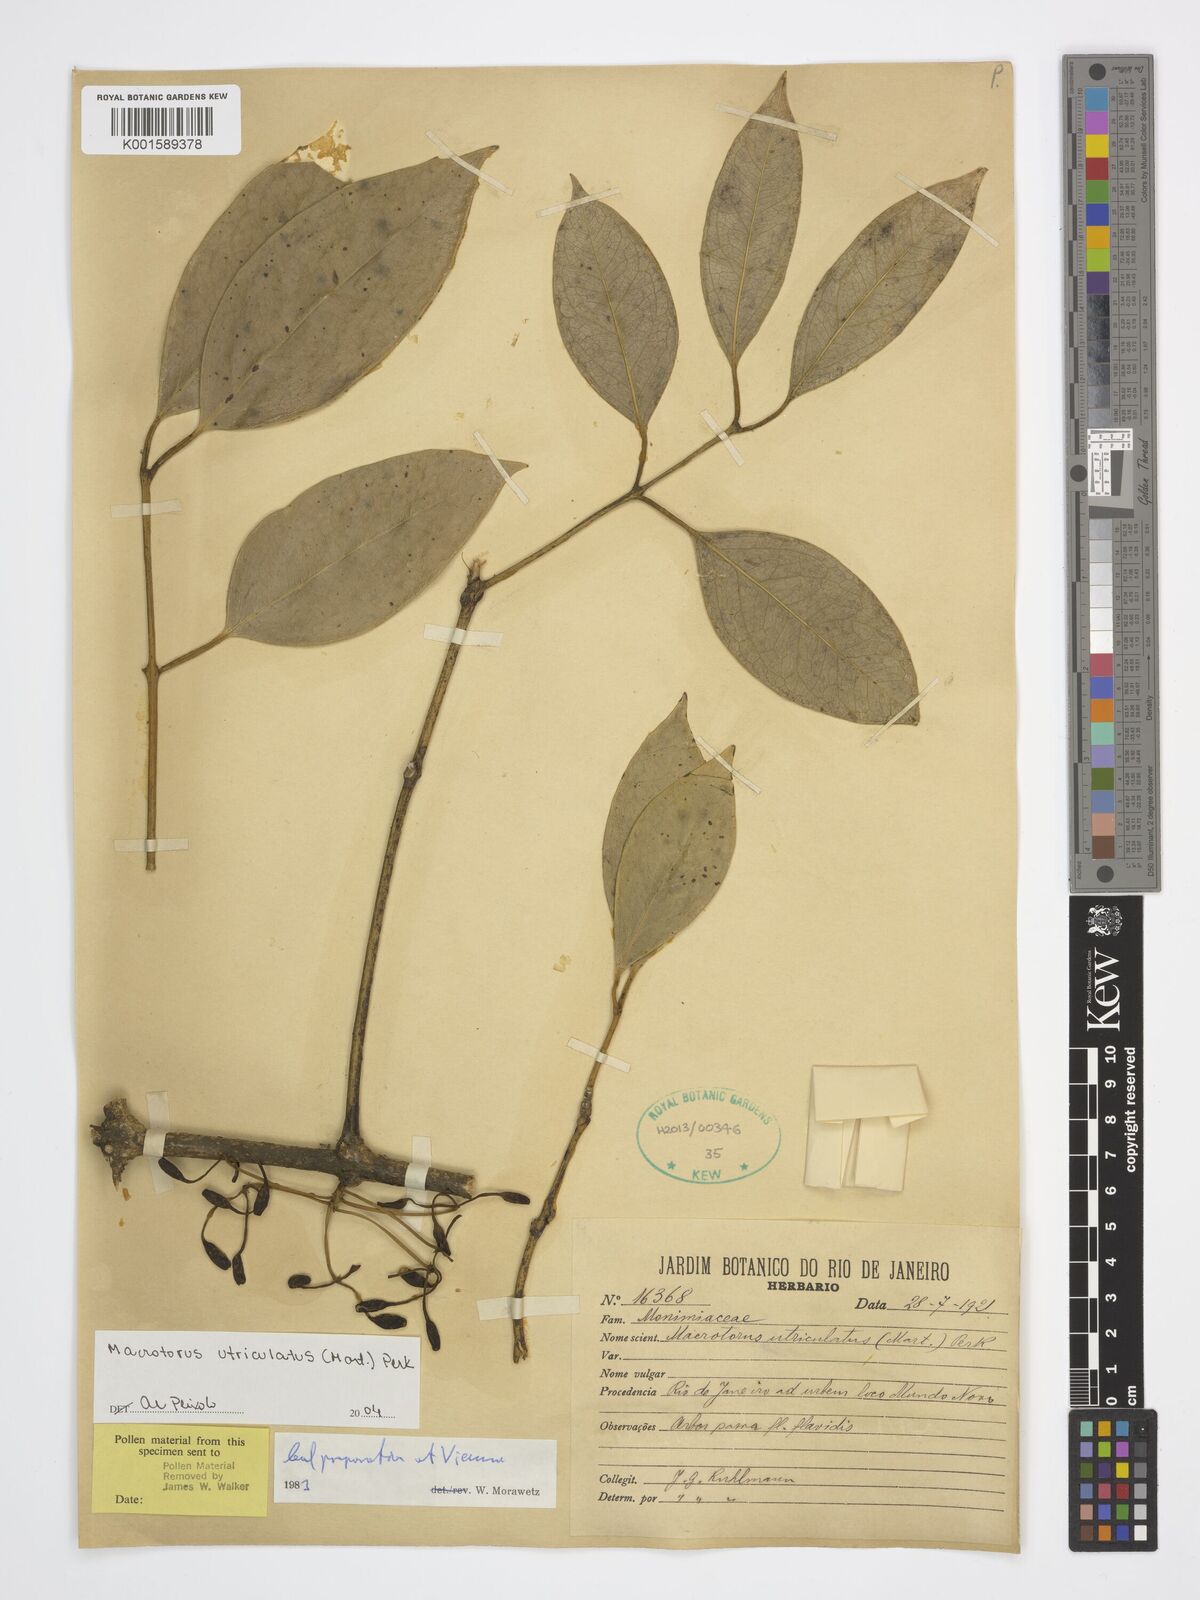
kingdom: Plantae
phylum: Tracheophyta
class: Magnoliopsida
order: Laurales
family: Monimiaceae
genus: Macrotorus
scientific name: Macrotorus utriculatus
